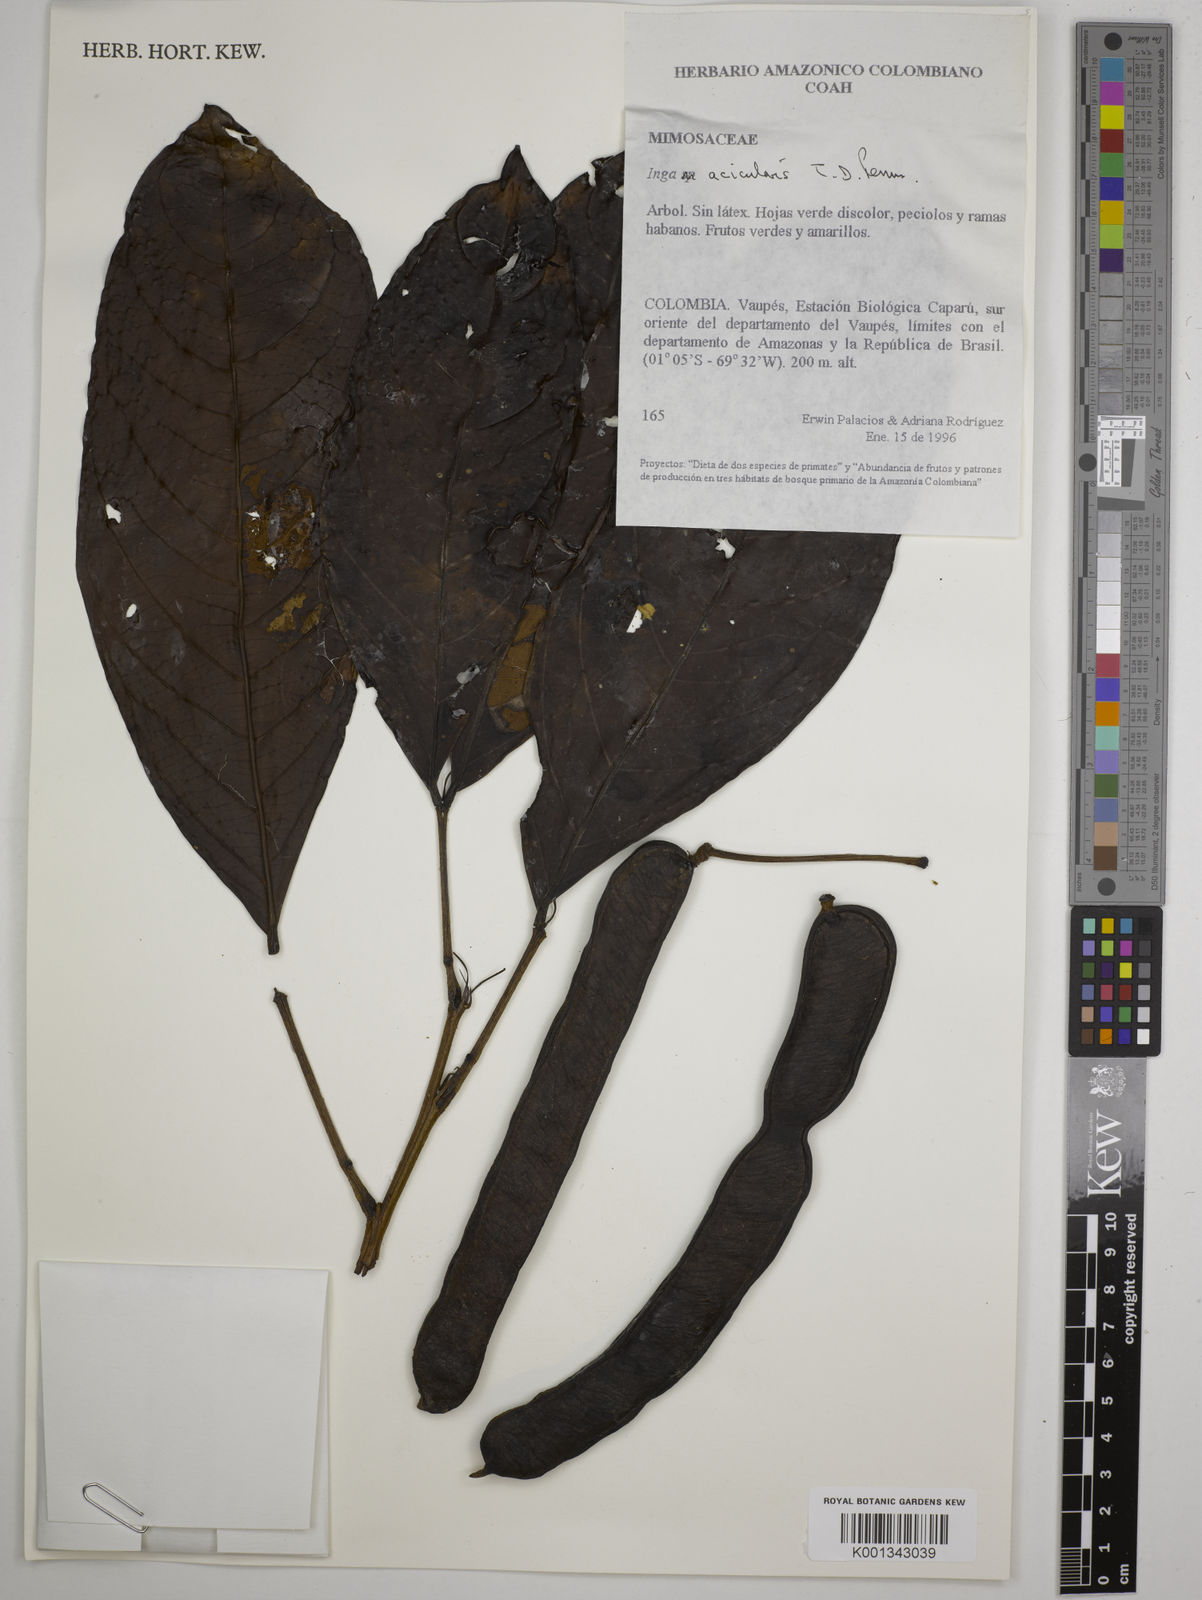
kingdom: Plantae
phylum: Tracheophyta
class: Magnoliopsida
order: Fabales
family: Fabaceae
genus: Inga
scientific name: Inga acicularis
